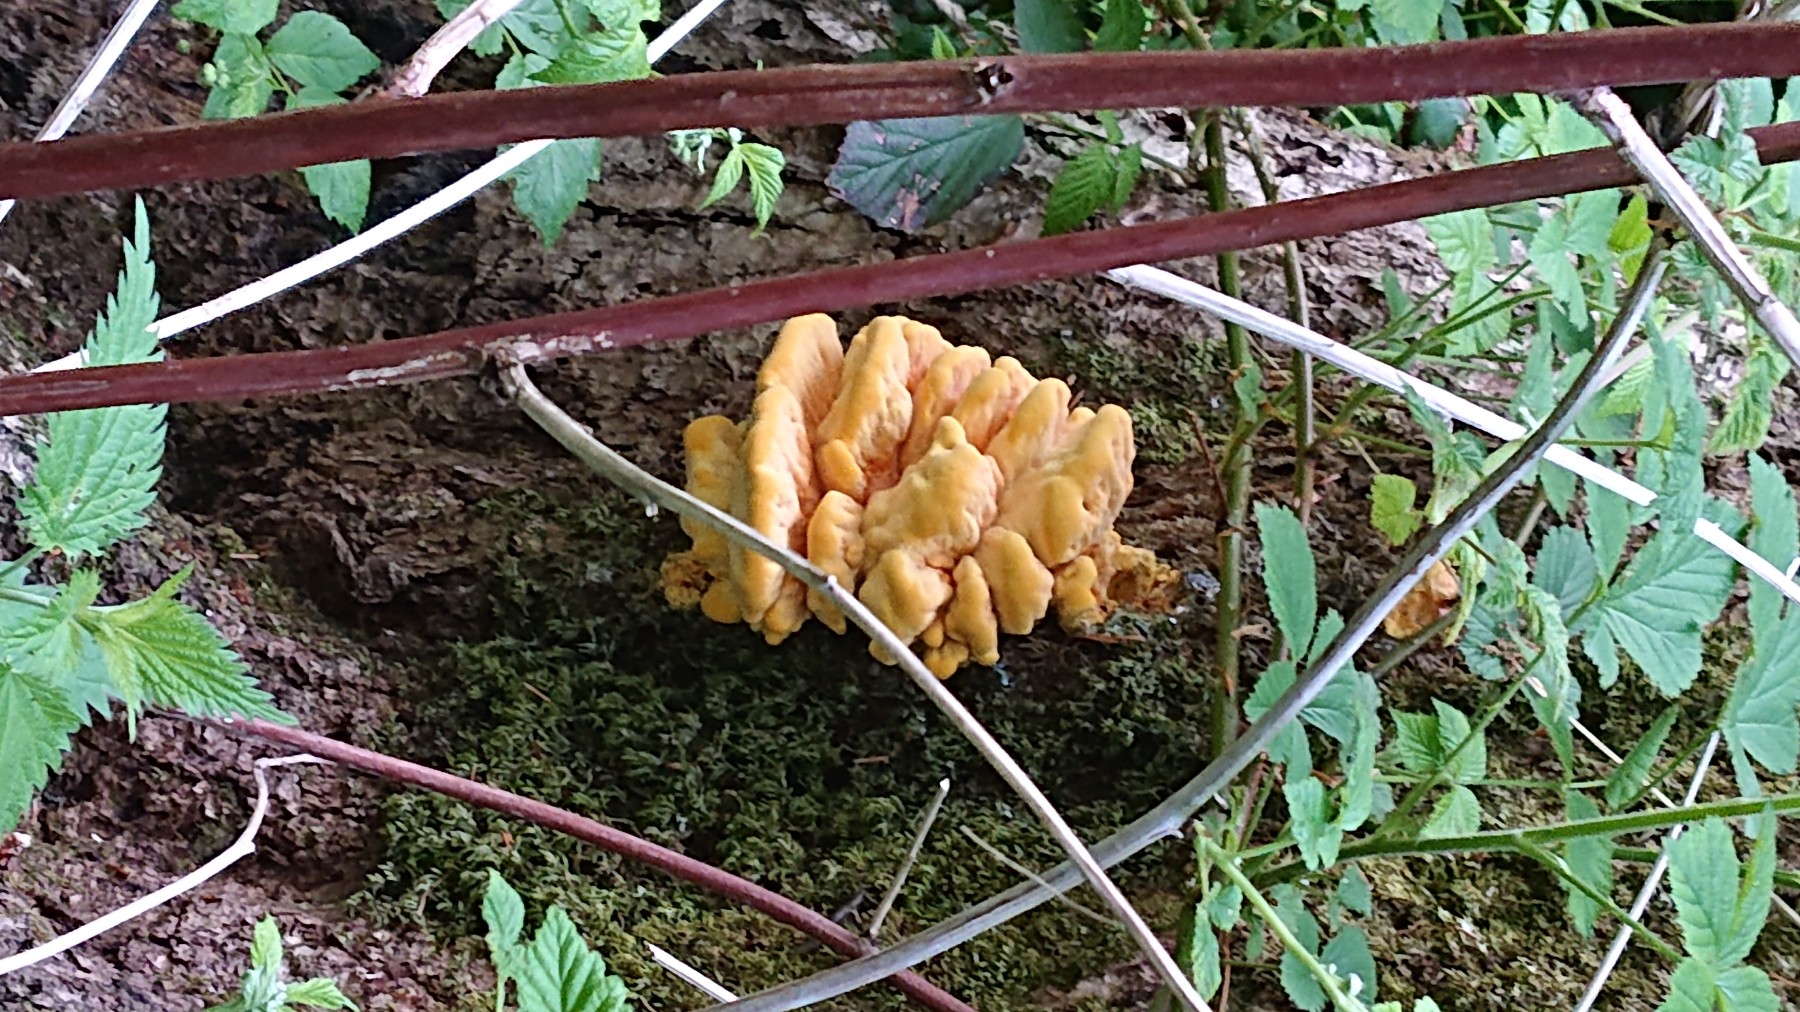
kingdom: Fungi
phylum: Basidiomycota
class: Agaricomycetes
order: Polyporales
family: Laetiporaceae
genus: Laetiporus
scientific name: Laetiporus sulphureus
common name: svovlporesvamp
